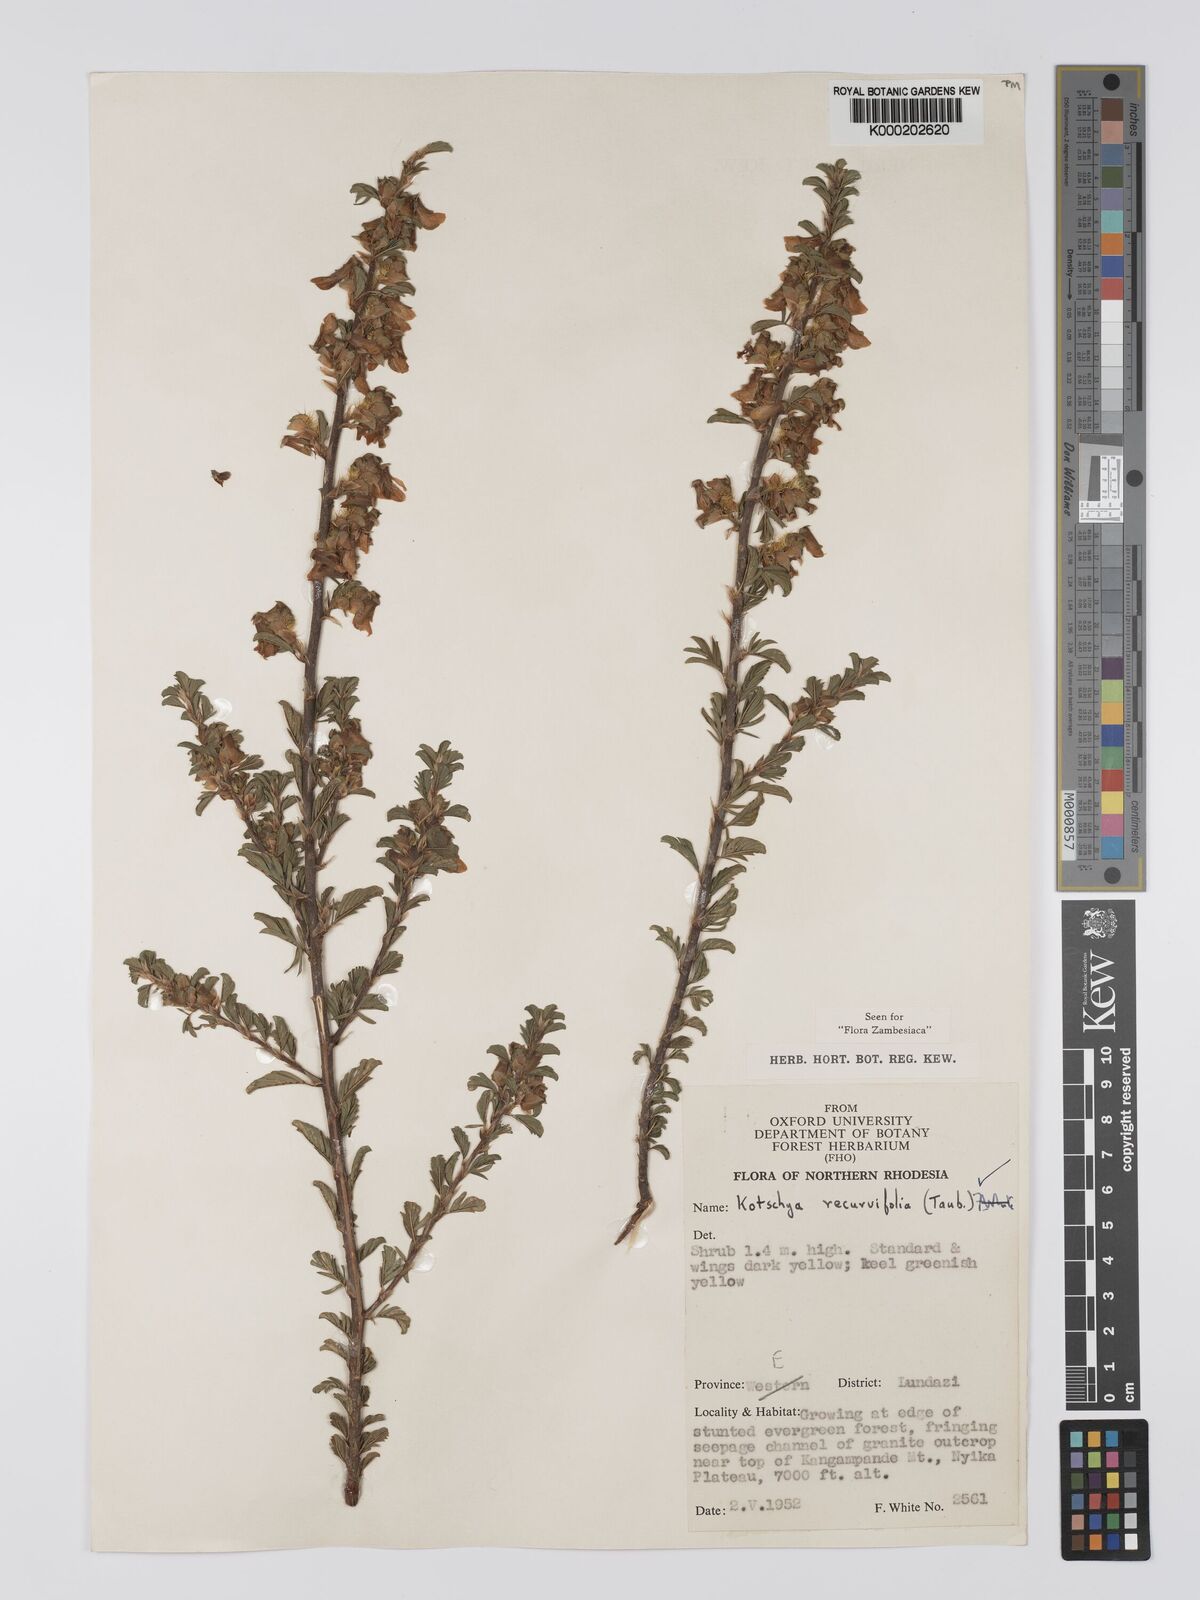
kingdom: Plantae
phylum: Tracheophyta
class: Magnoliopsida
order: Fabales
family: Fabaceae
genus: Kotschya
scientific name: Kotschya recurvifolia
